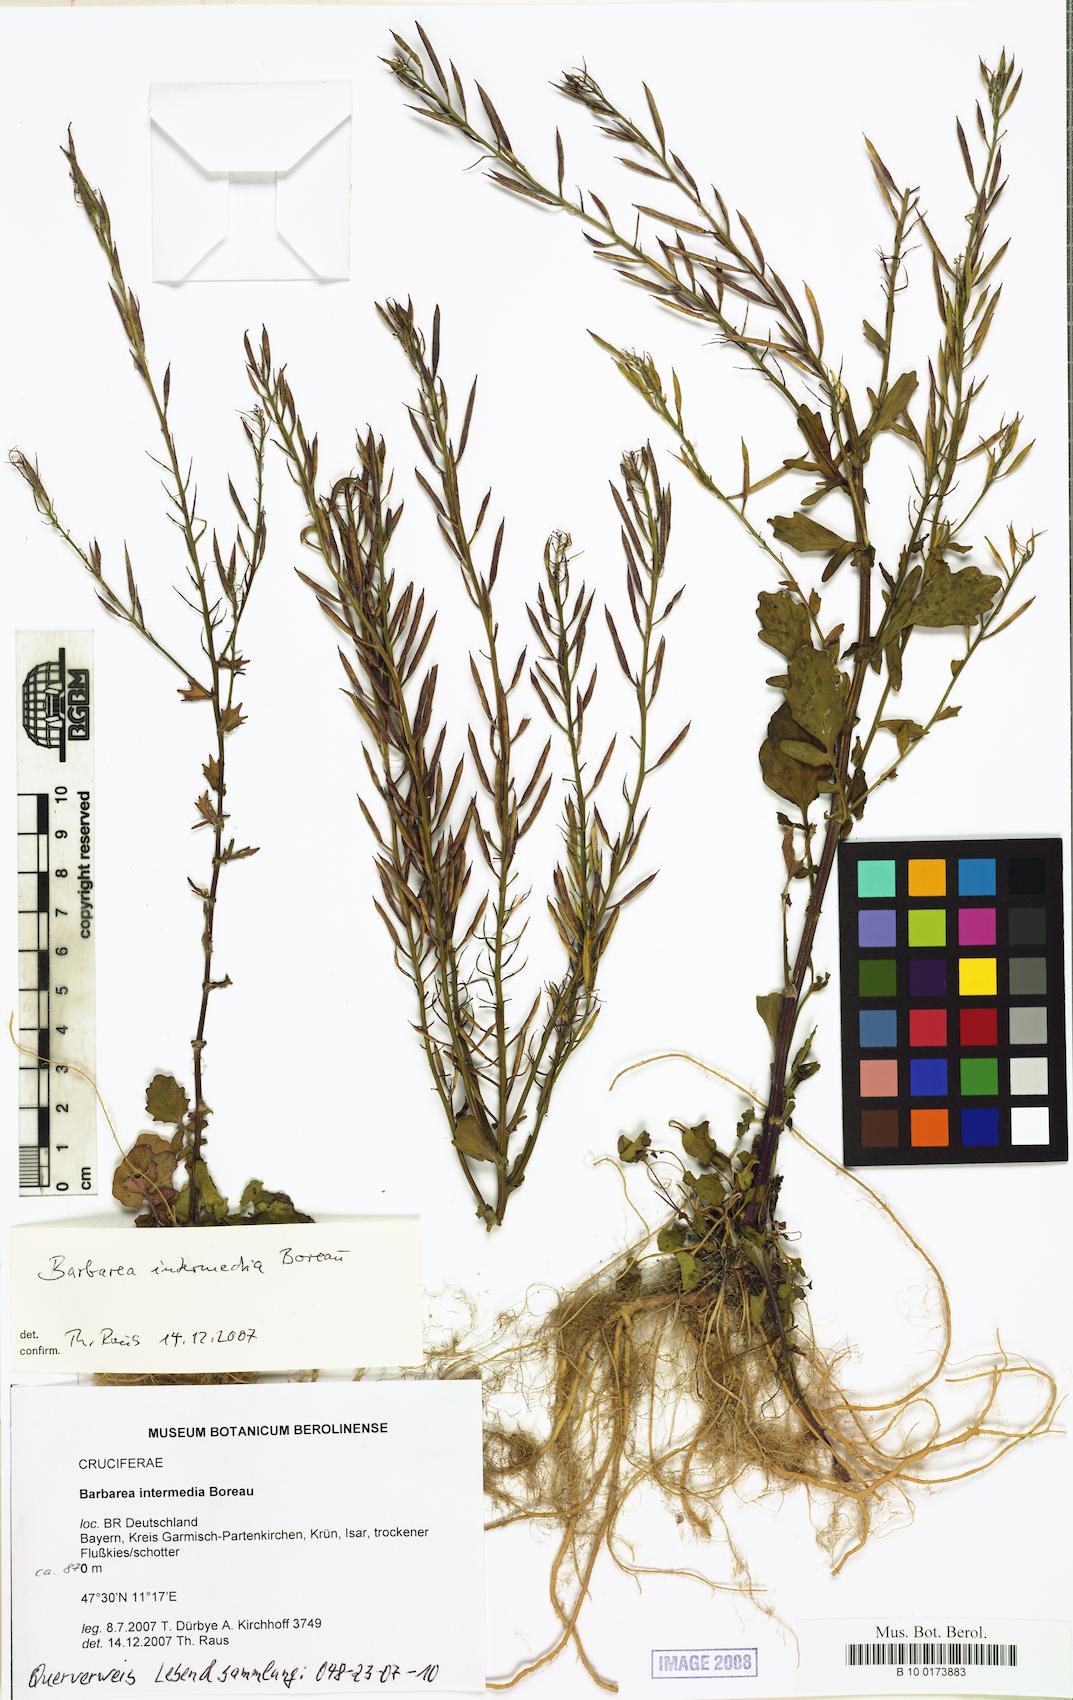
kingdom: Plantae
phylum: Tracheophyta
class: Magnoliopsida
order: Brassicales
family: Brassicaceae
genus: Barbarea
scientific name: Barbarea intermedia
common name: Medium-flowered winter-cress
